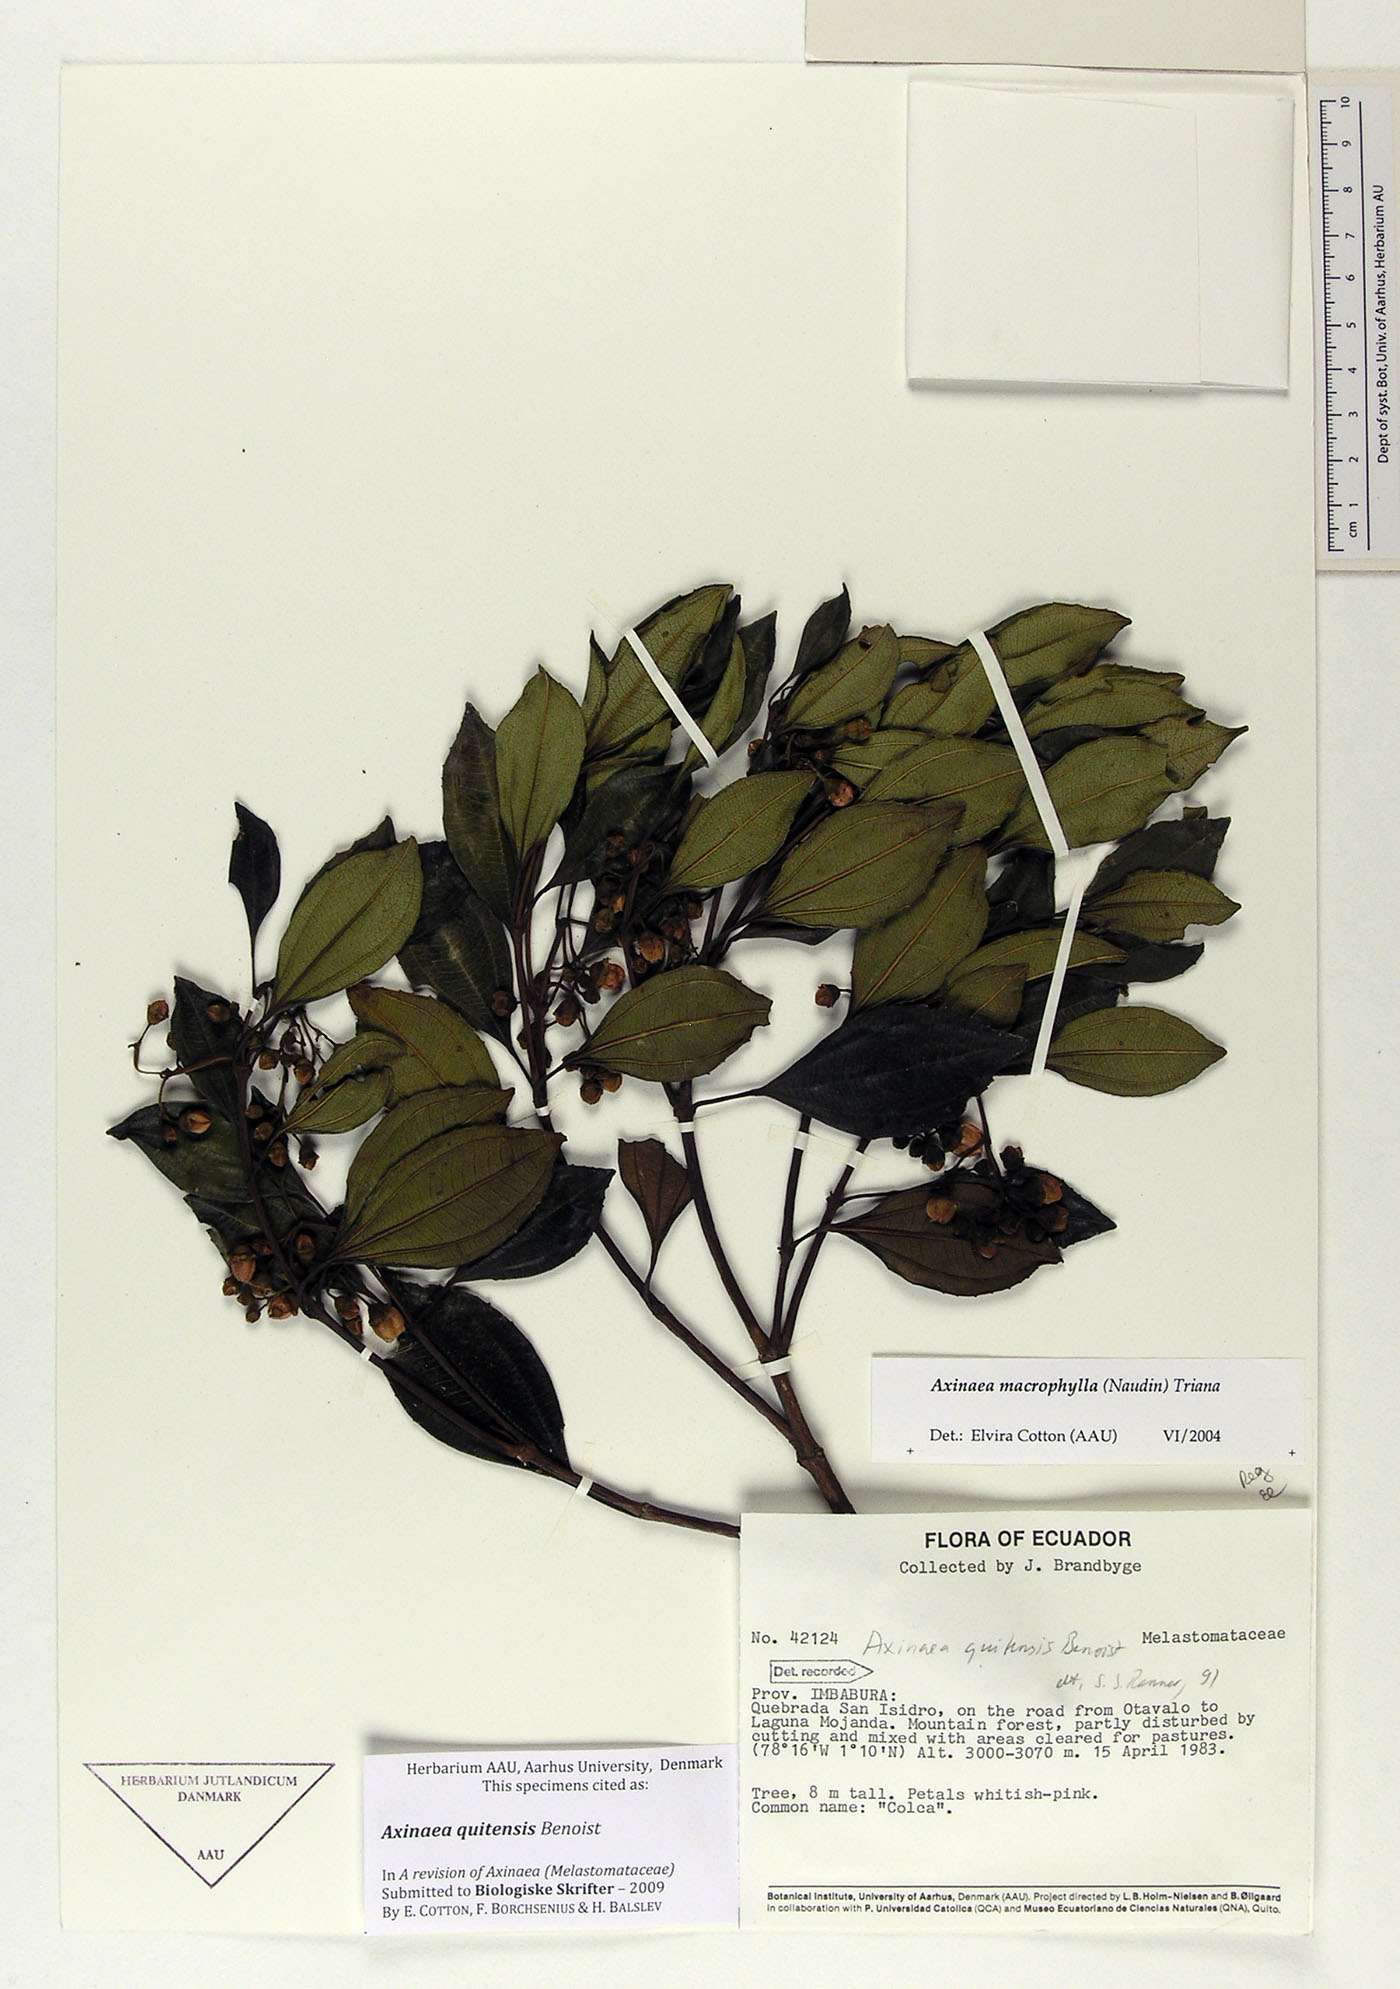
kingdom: Plantae
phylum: Tracheophyta
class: Magnoliopsida
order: Myrtales
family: Melastomataceae
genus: Axinaea
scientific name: Axinaea quitensis
